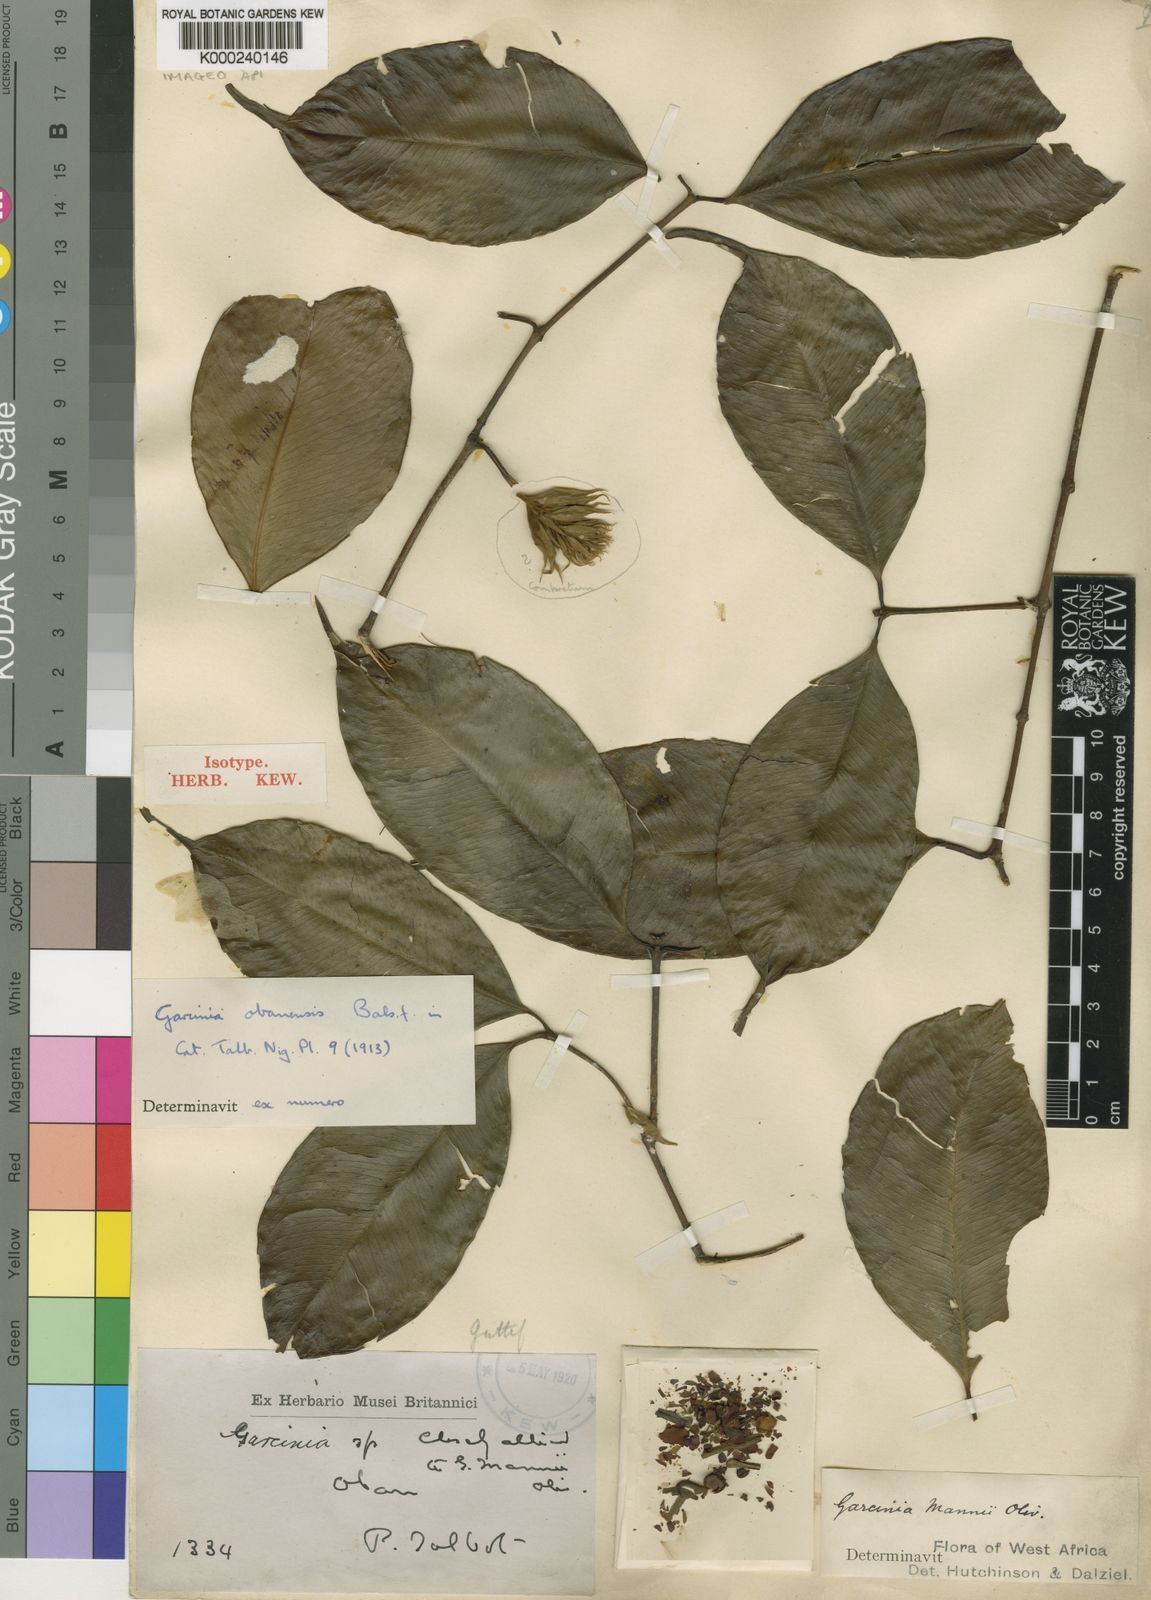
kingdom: Plantae
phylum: Tracheophyta
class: Magnoliopsida
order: Malpighiales
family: Clusiaceae
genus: Garcinia
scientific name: Garcinia mannii
